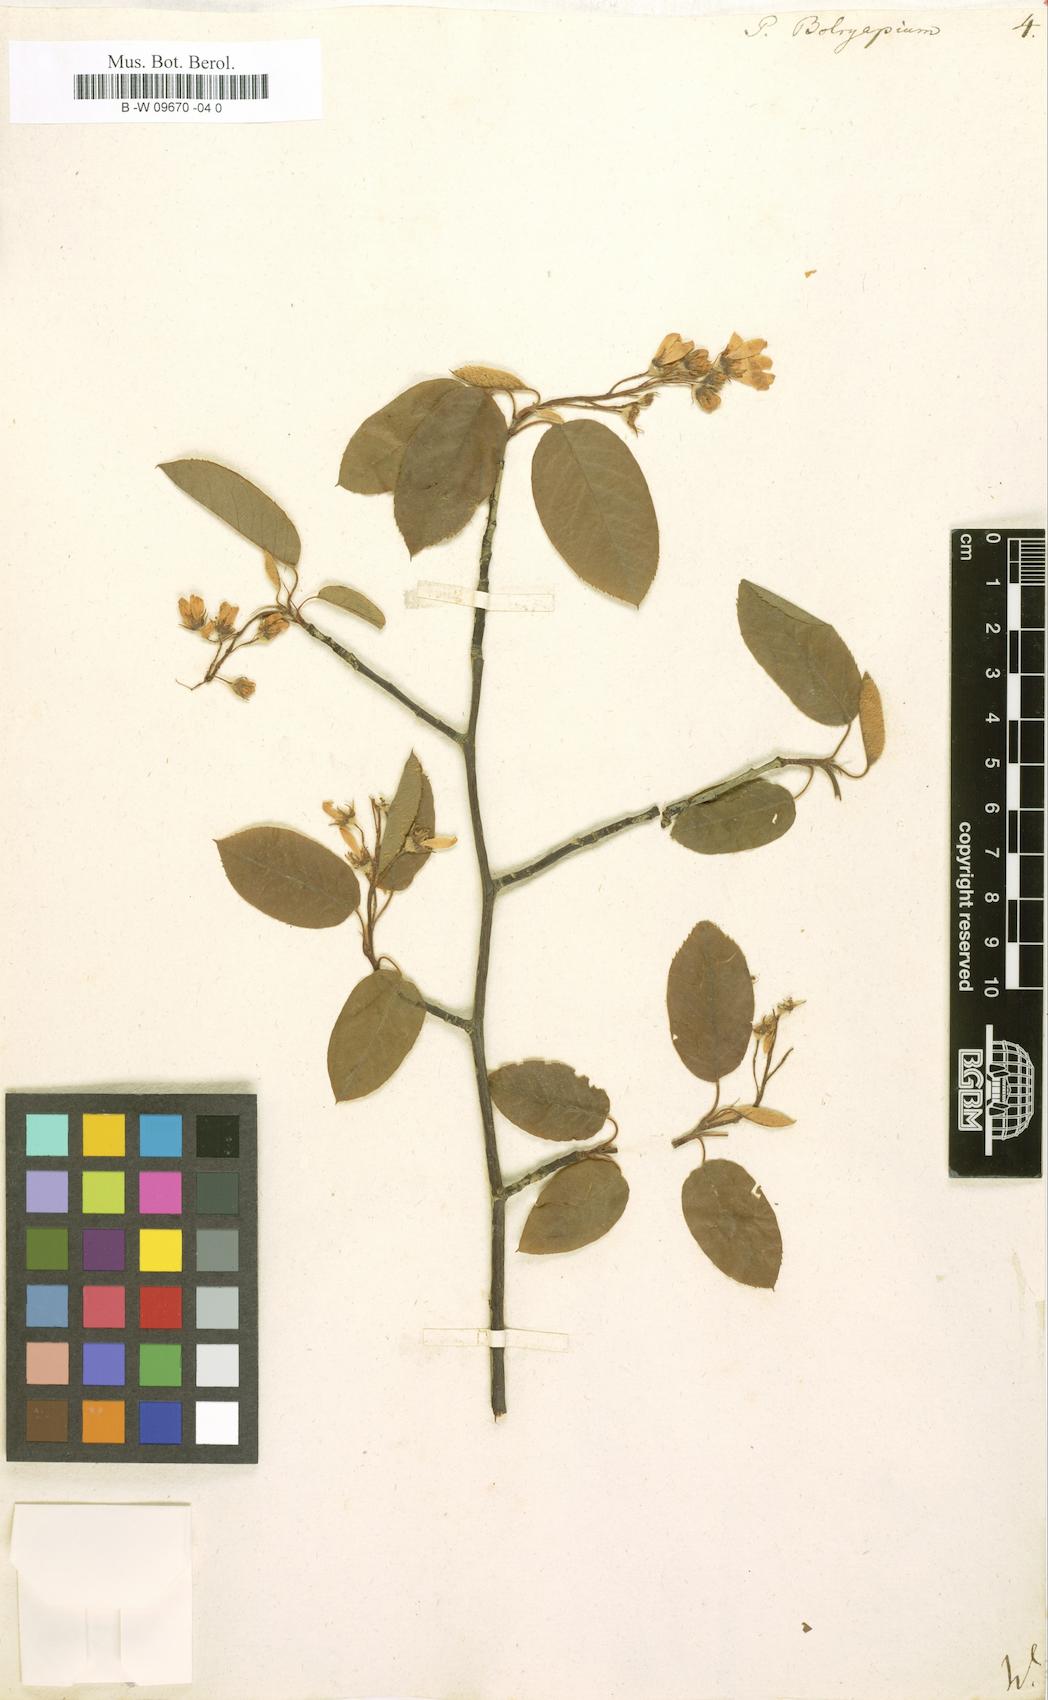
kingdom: Plantae
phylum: Tracheophyta
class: Magnoliopsida
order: Rosales
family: Rosaceae
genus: Amelanchier
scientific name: Amelanchier
